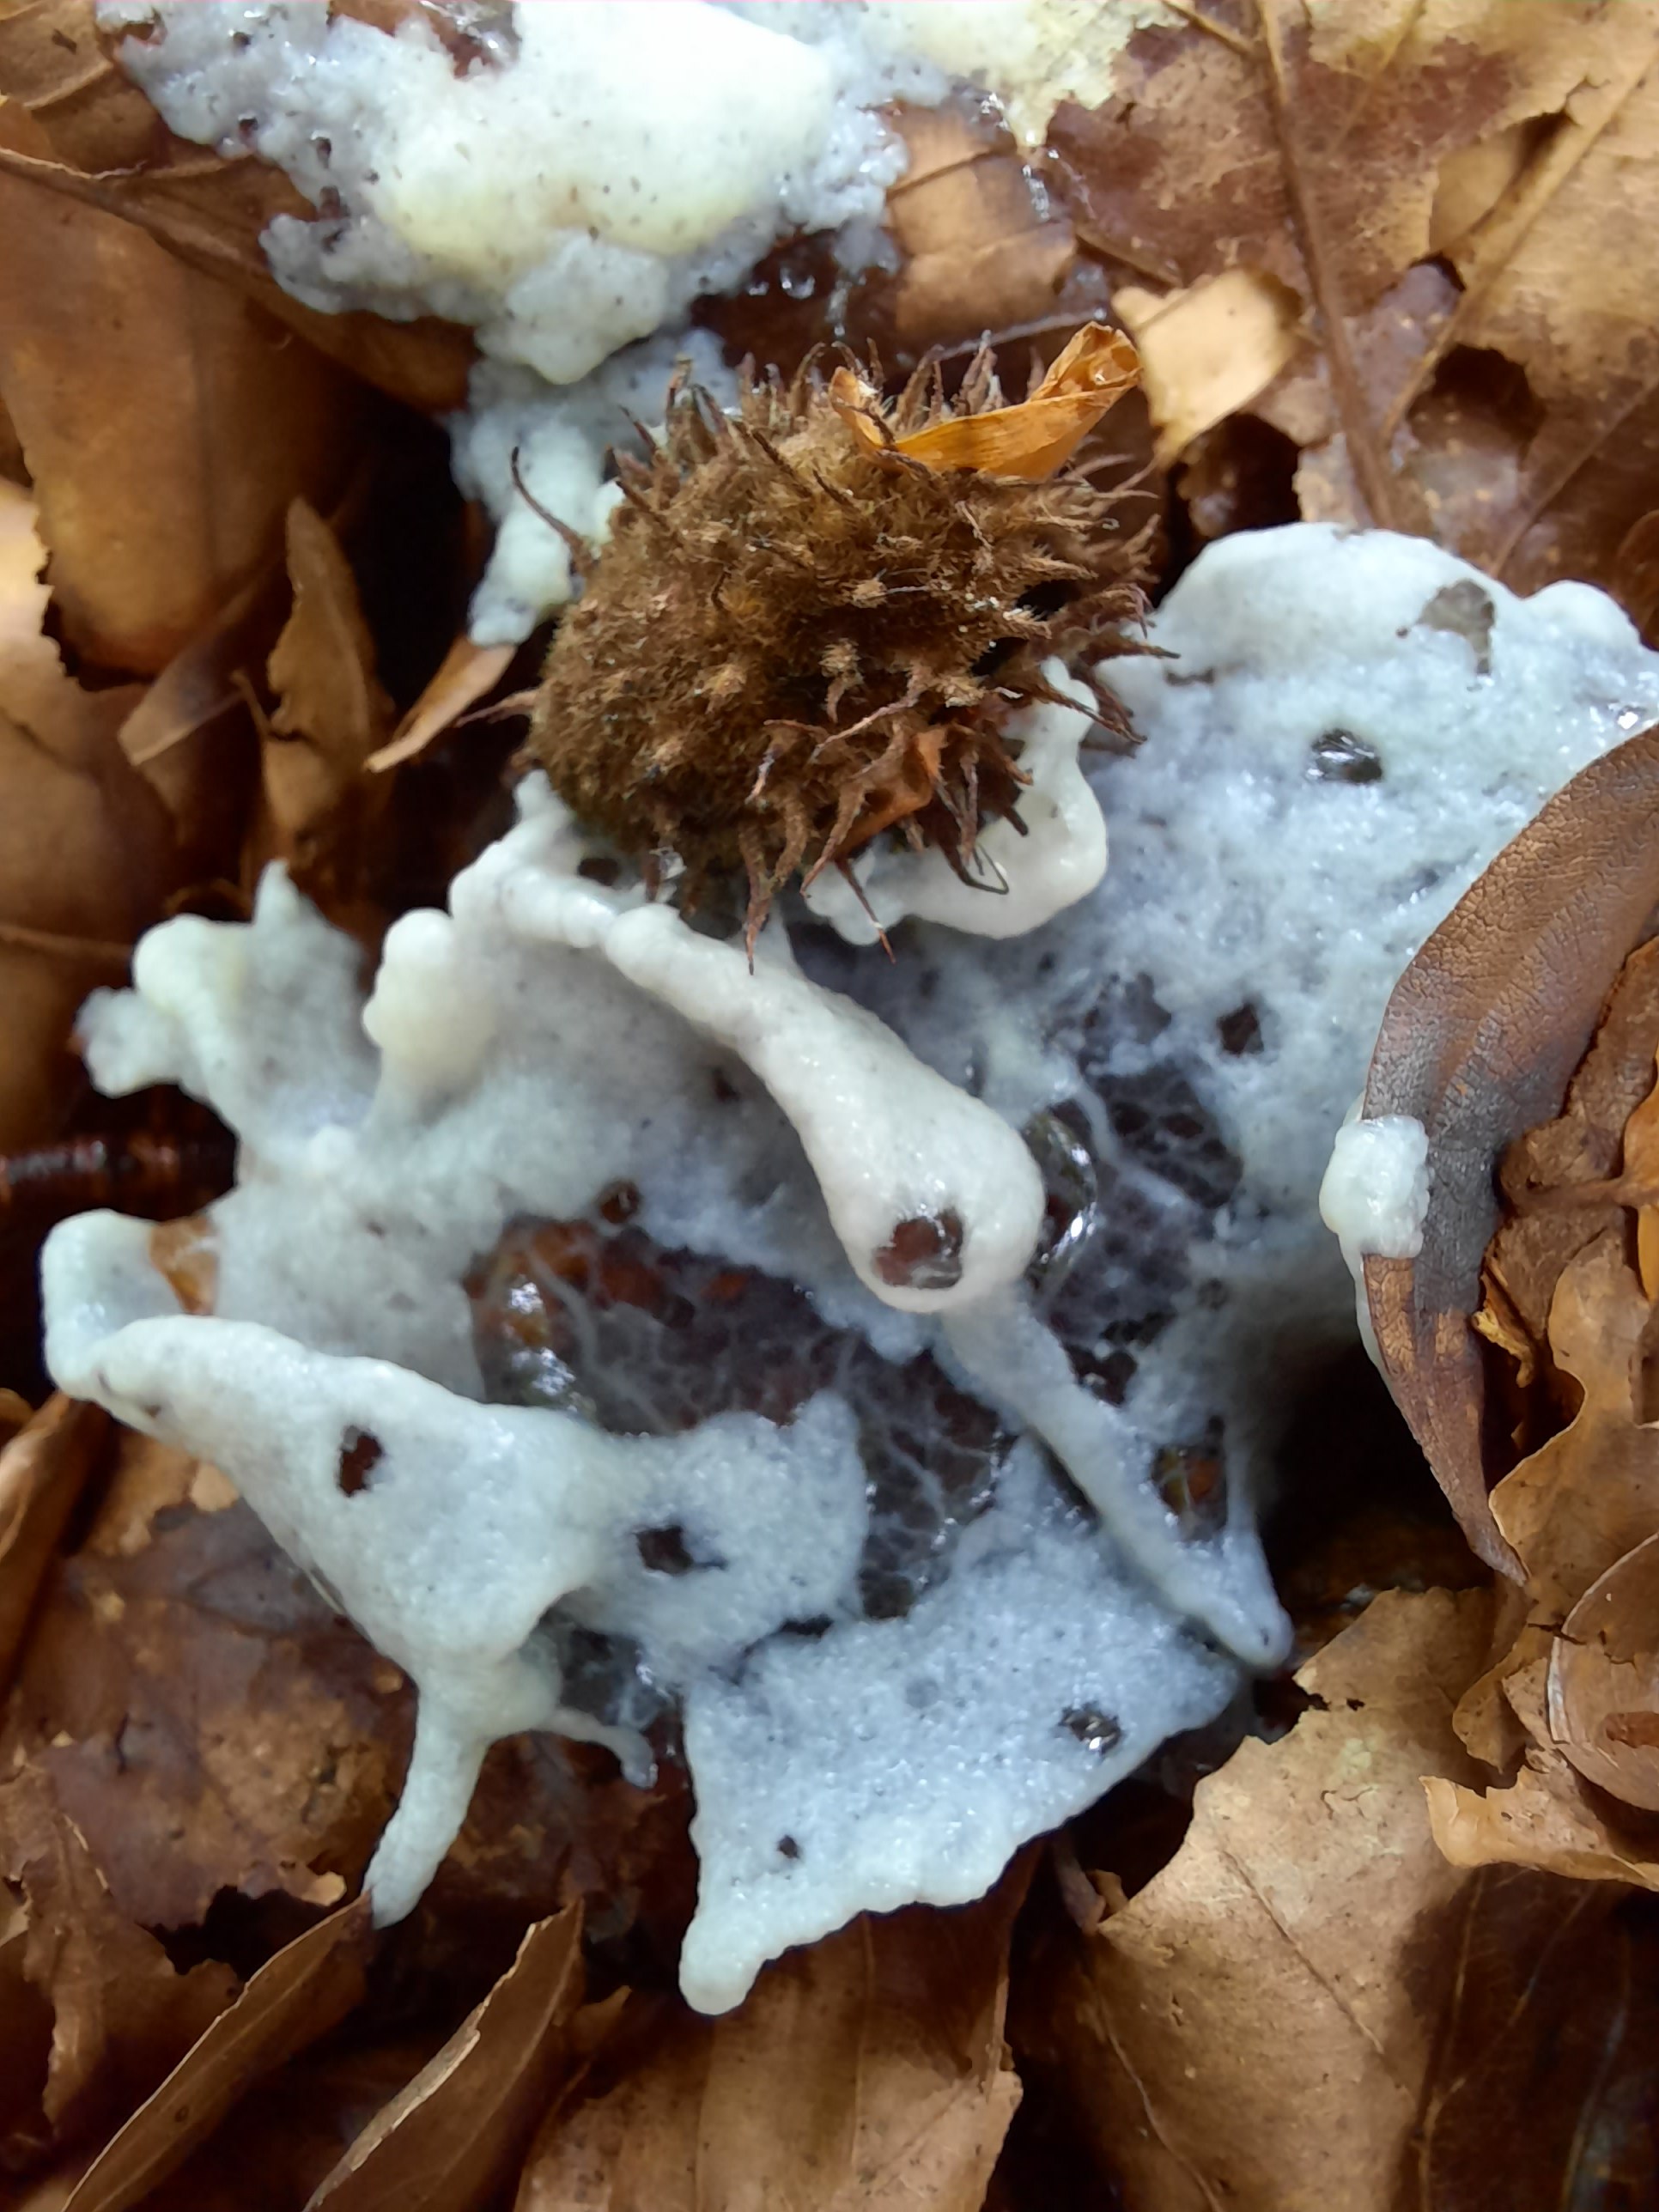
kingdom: Protozoa
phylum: Mycetozoa
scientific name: Mycetozoa
